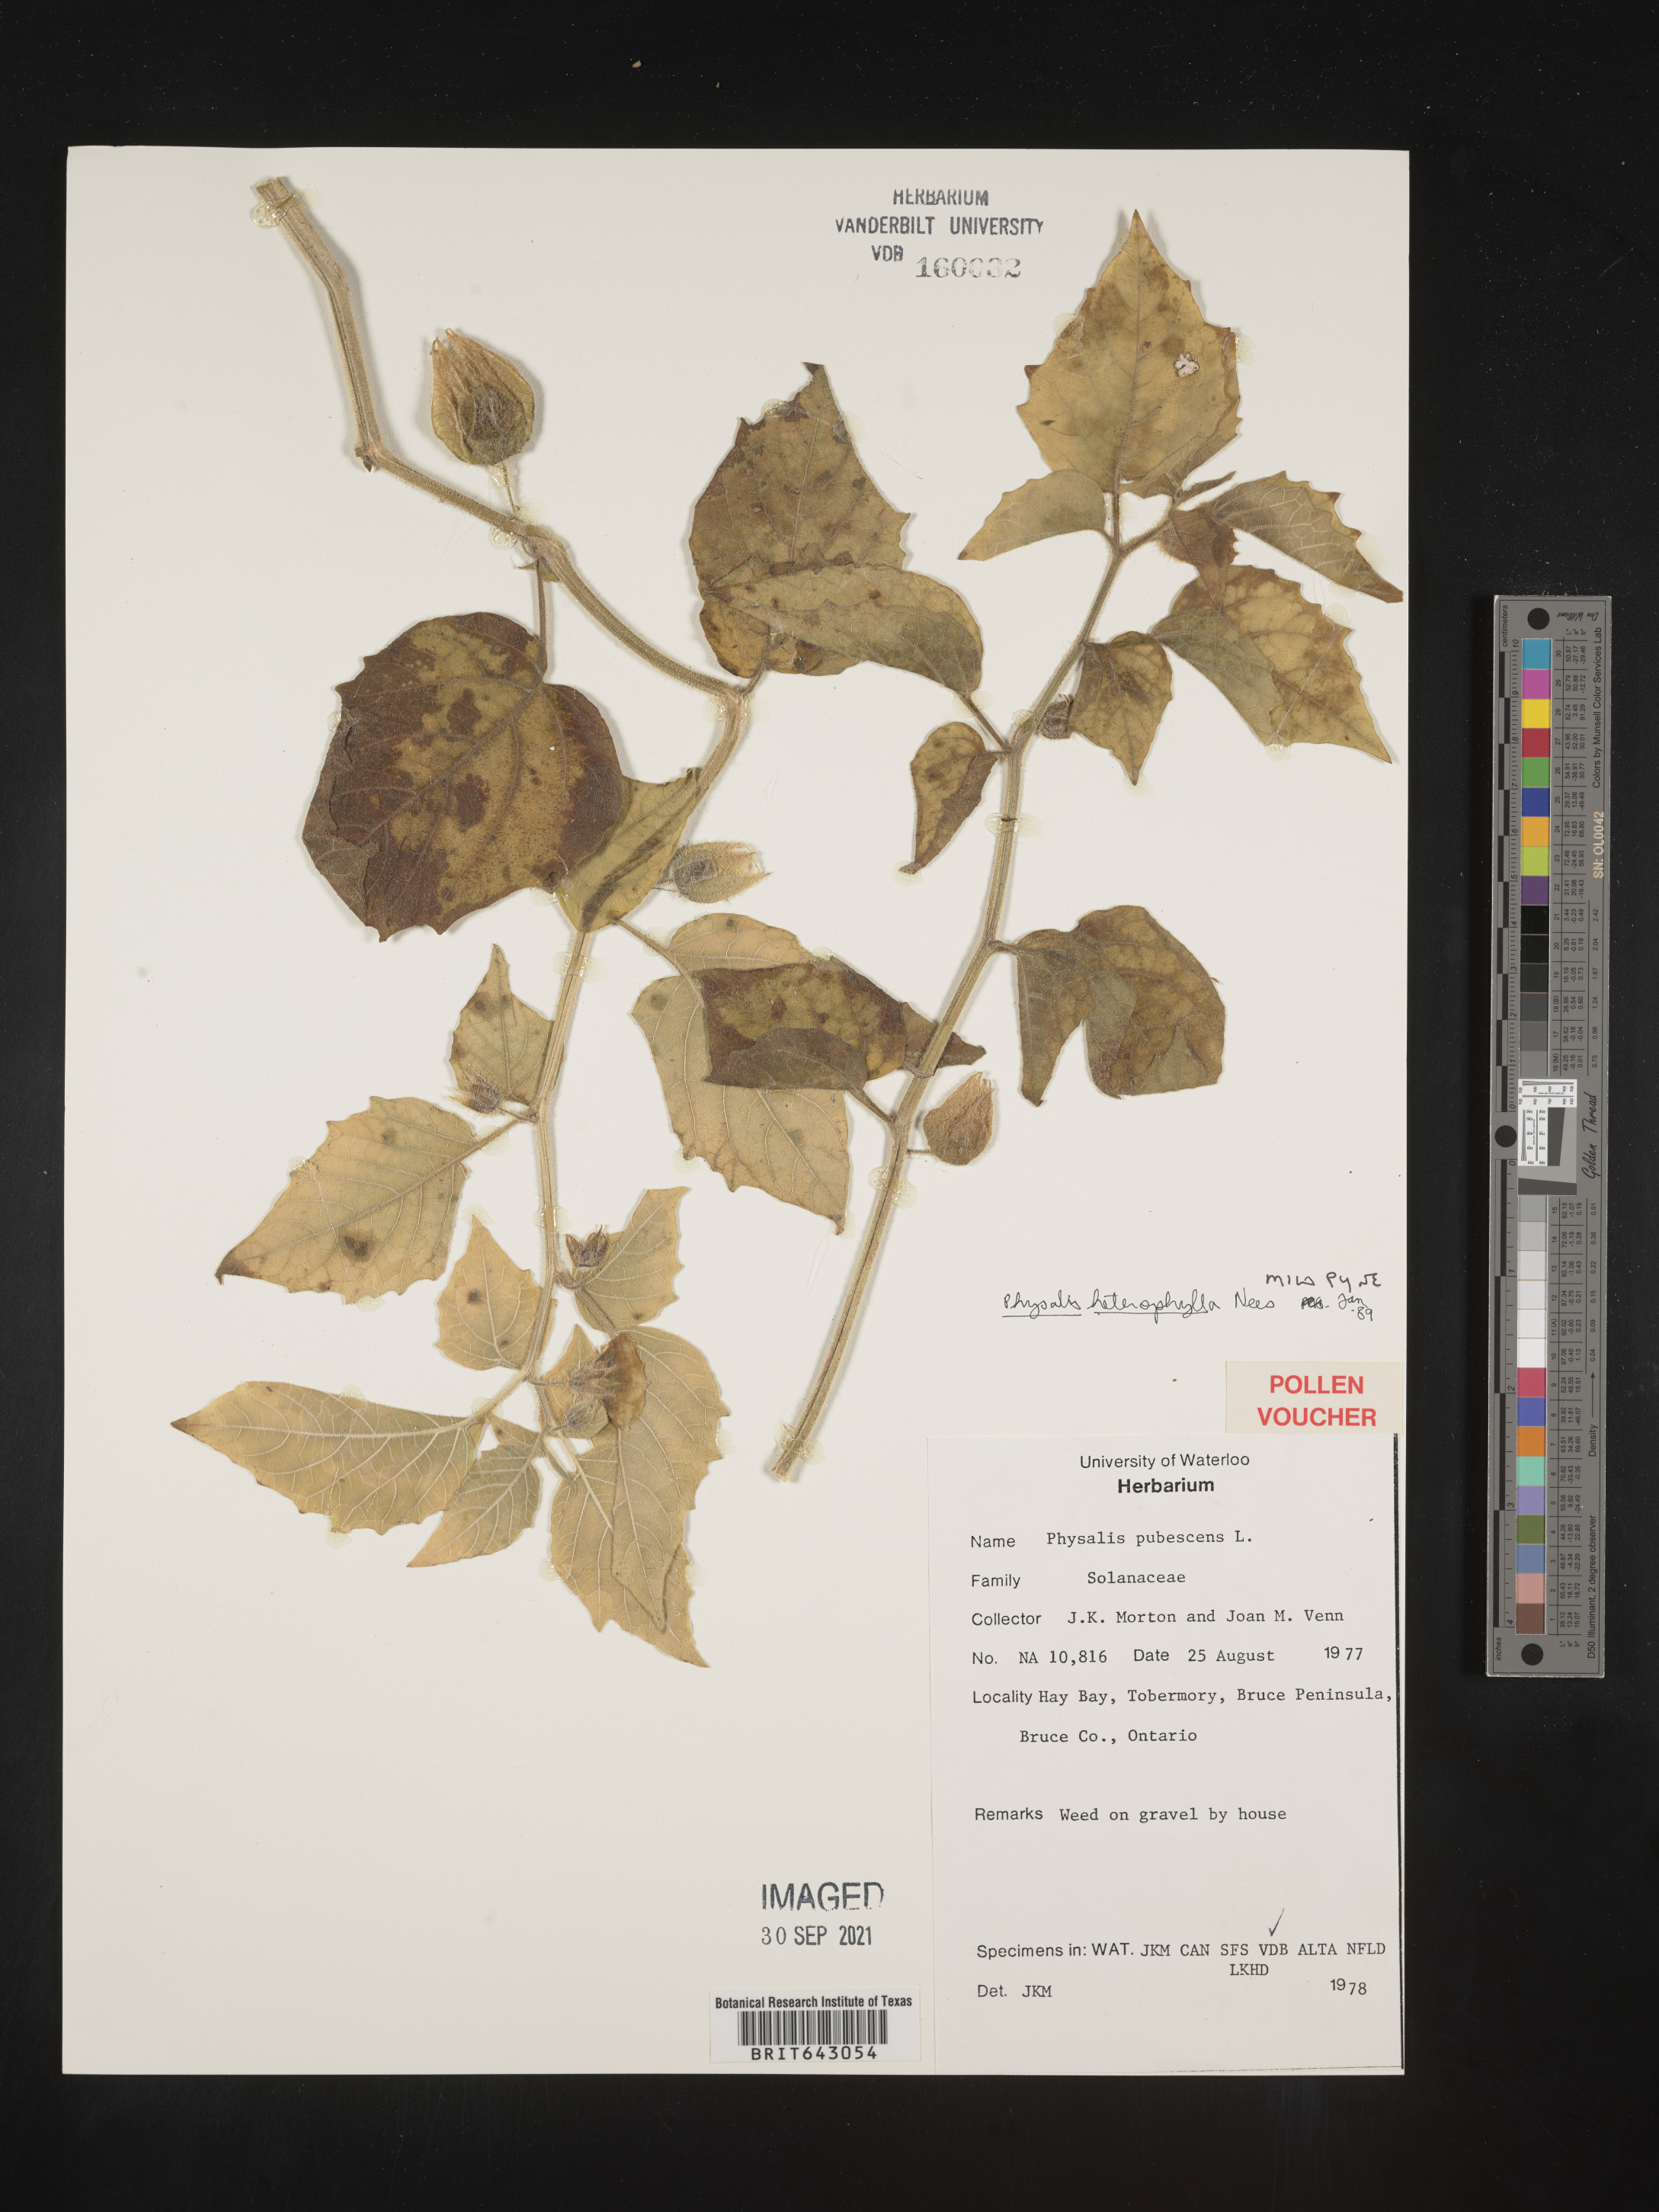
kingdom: Plantae
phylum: Tracheophyta
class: Magnoliopsida
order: Solanales
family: Solanaceae
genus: Physalis
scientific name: Physalis
